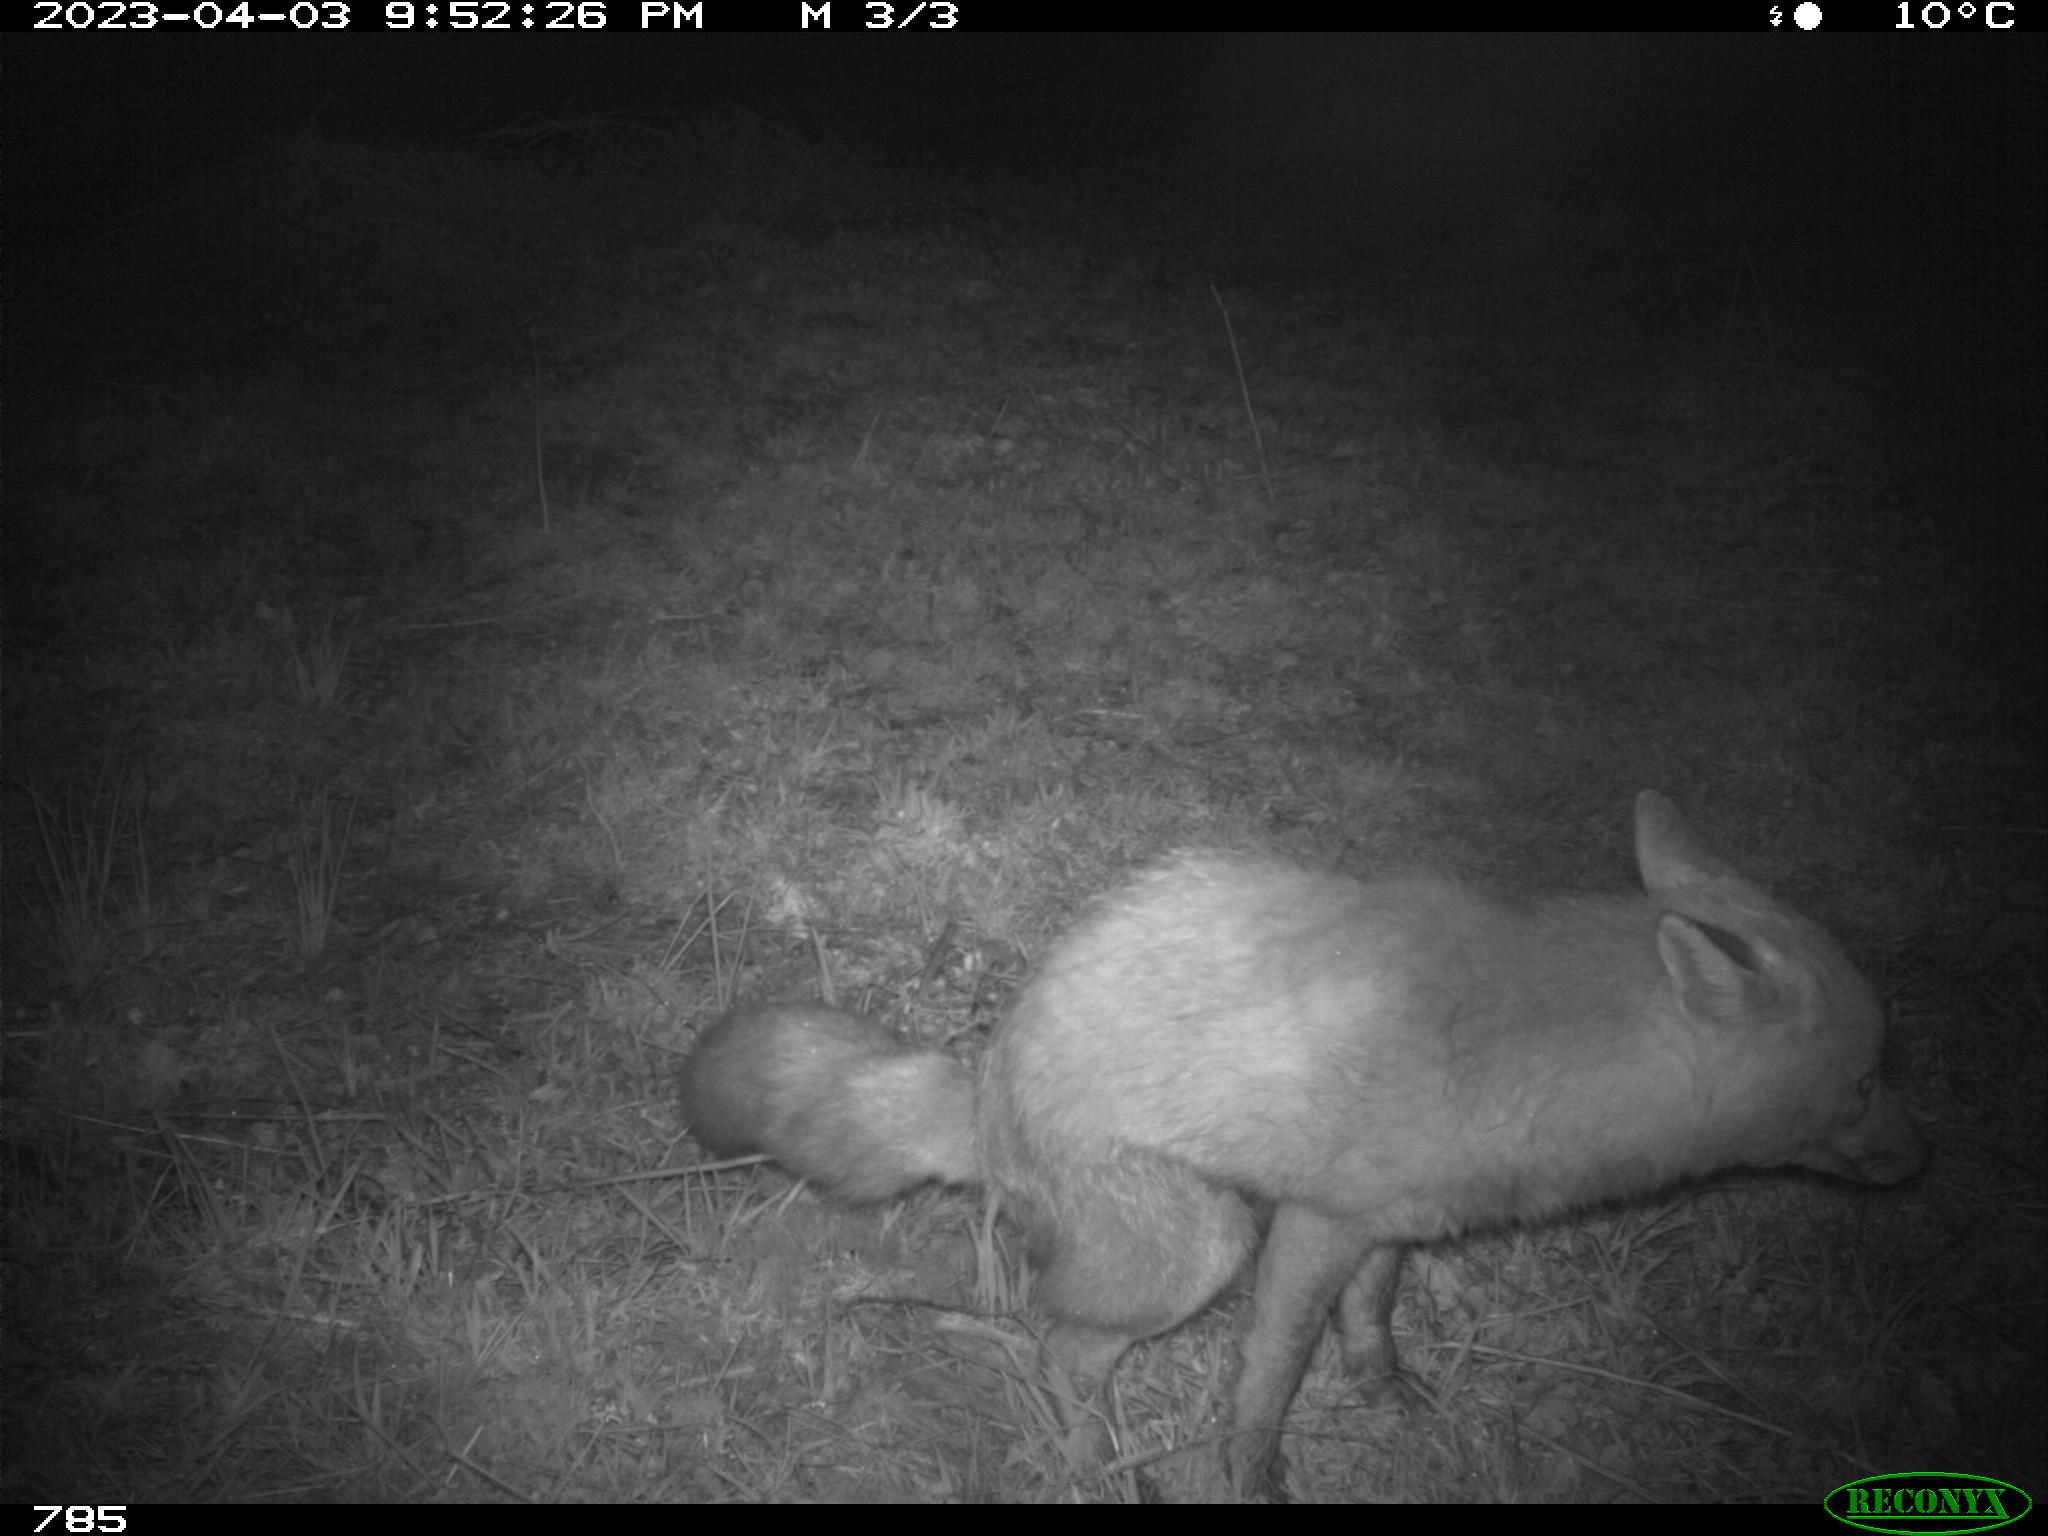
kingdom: Animalia
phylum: Chordata
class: Mammalia
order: Carnivora
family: Canidae
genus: Vulpes
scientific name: Vulpes vulpes
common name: Red fox
